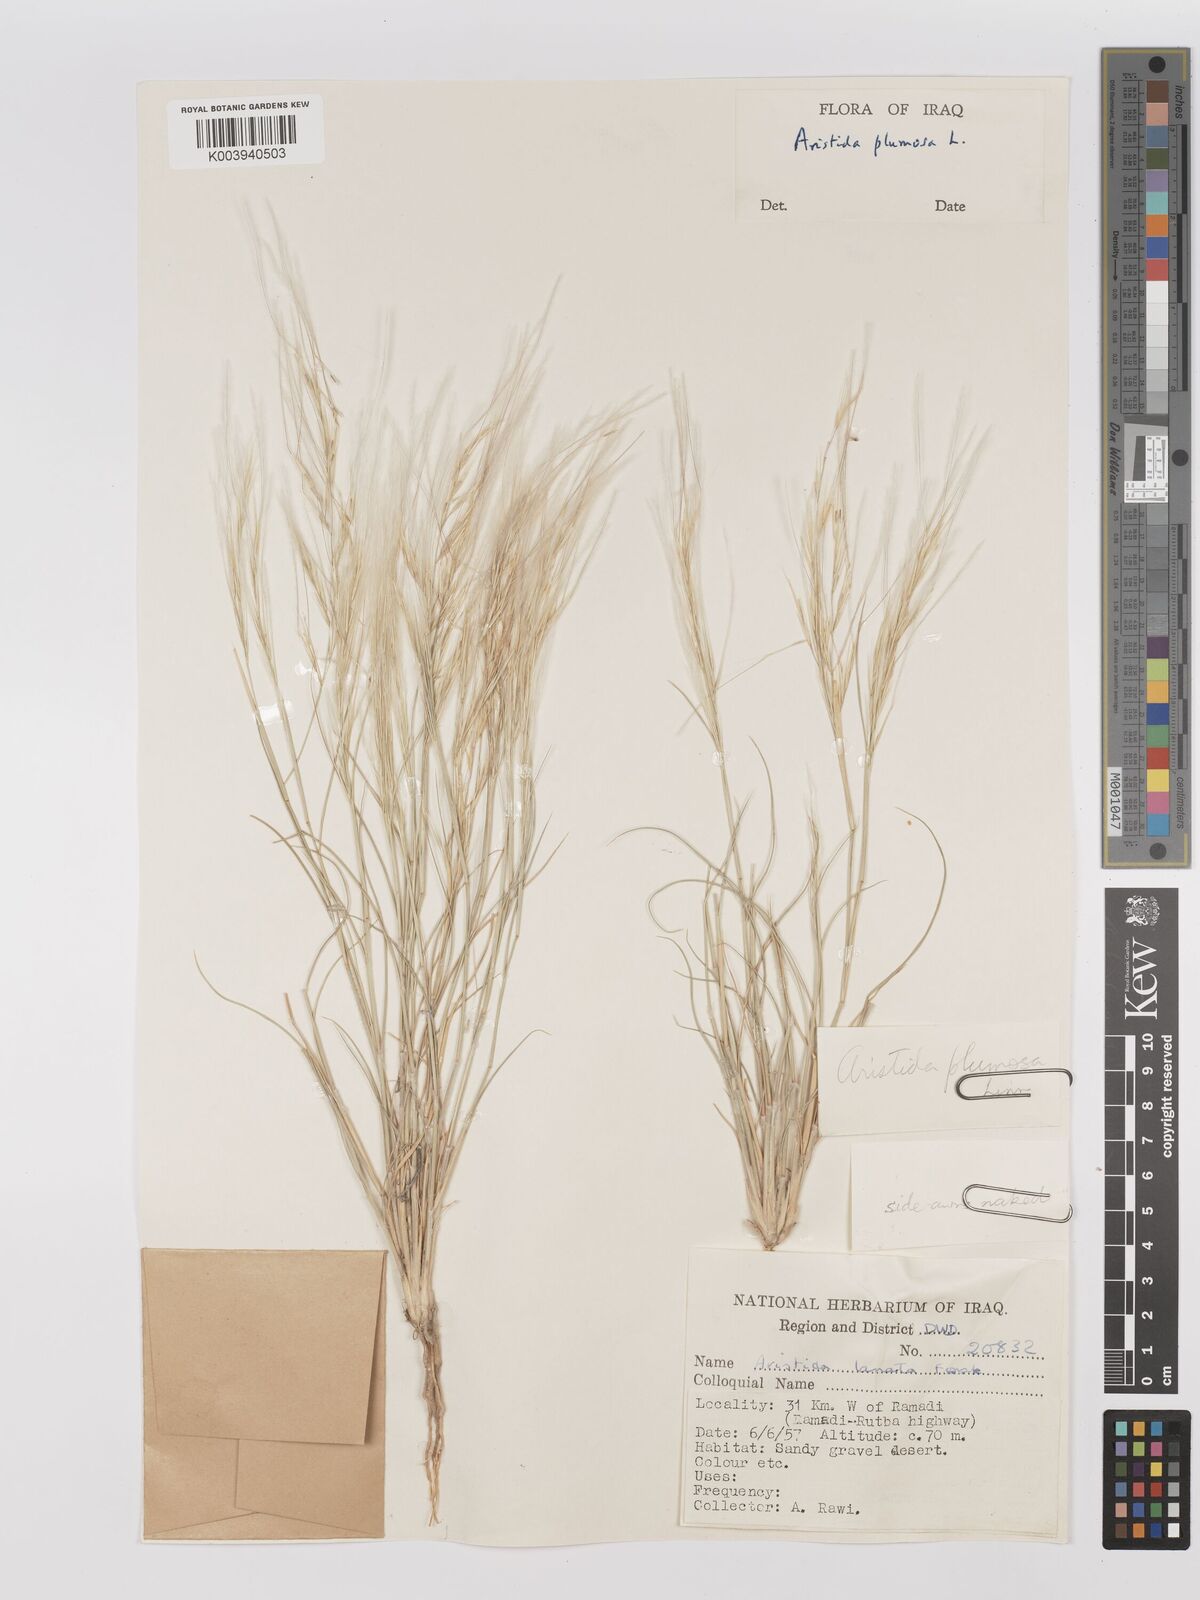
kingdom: Plantae
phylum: Tracheophyta
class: Liliopsida
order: Poales
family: Poaceae
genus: Stipagrostis
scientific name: Stipagrostis plumosa
